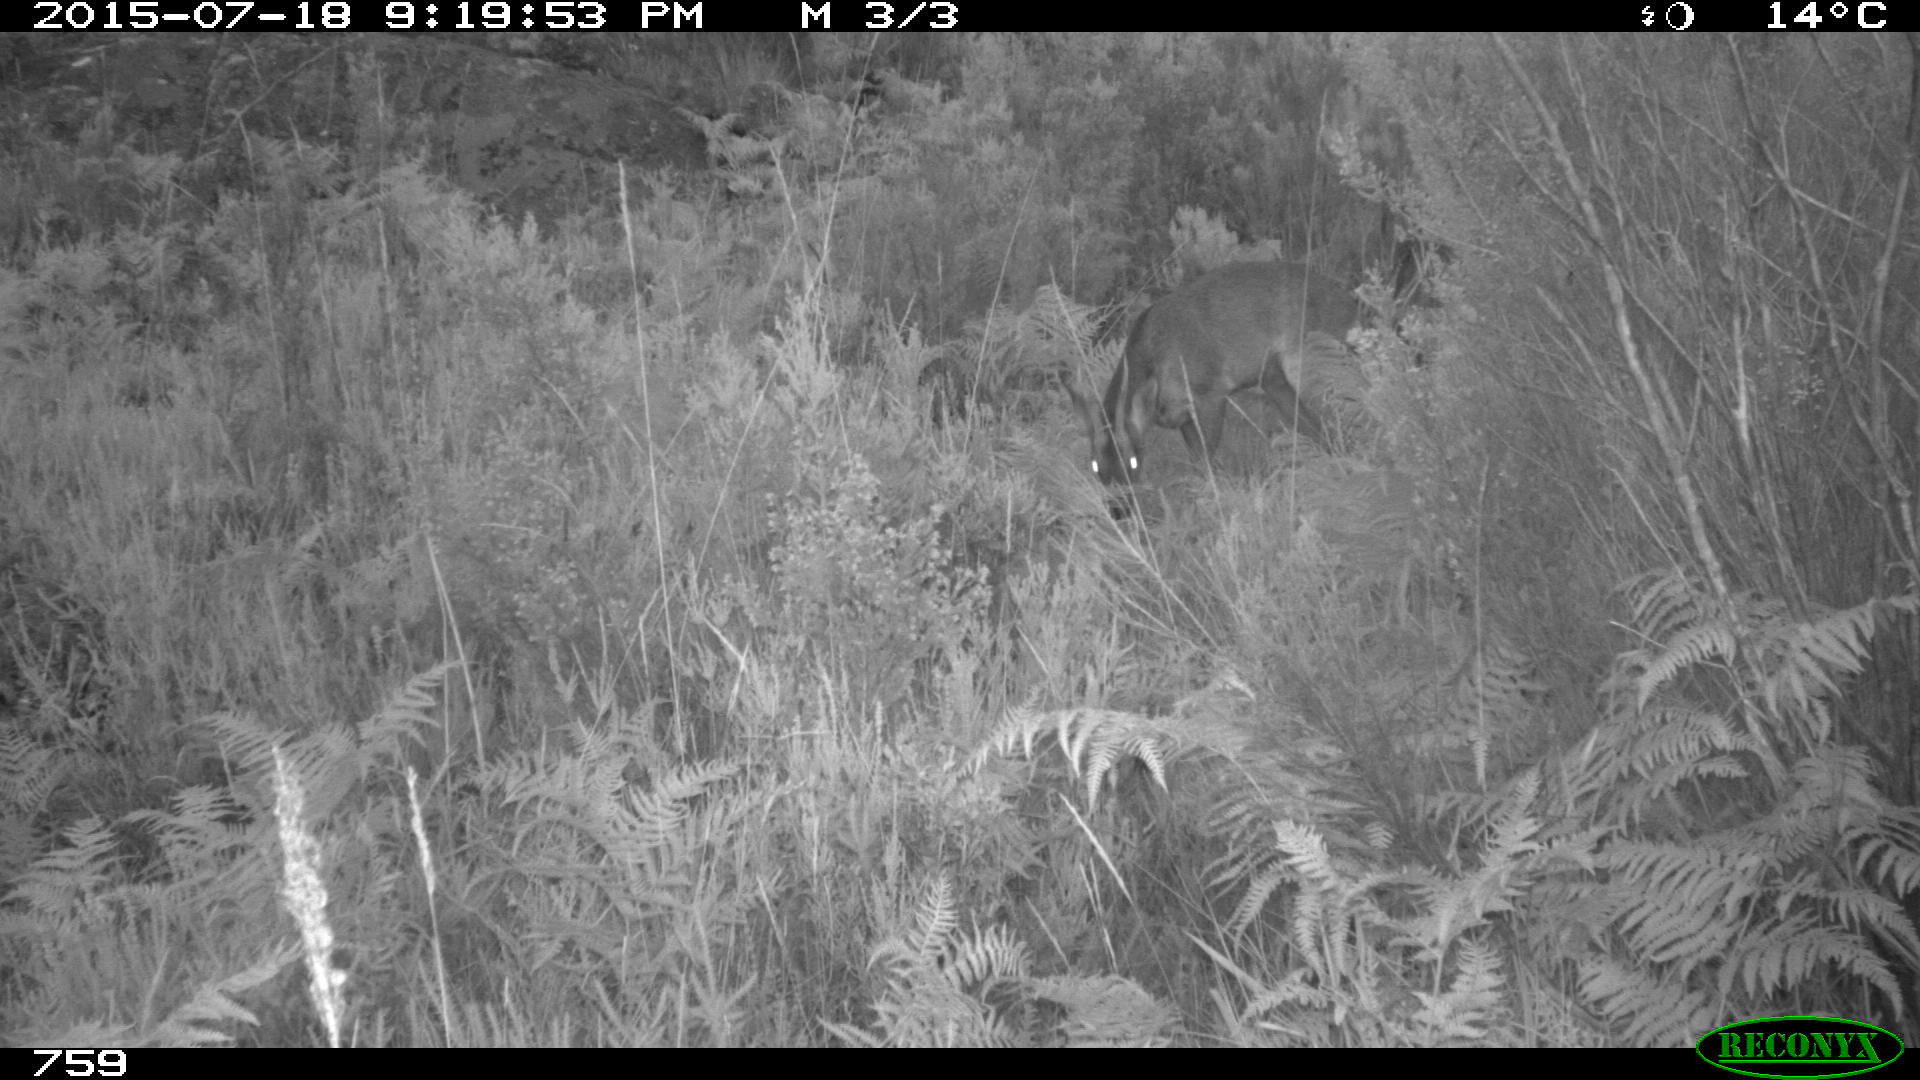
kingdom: Animalia
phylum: Chordata
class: Mammalia
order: Artiodactyla
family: Cervidae
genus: Capreolus
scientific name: Capreolus capreolus
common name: Western roe deer
